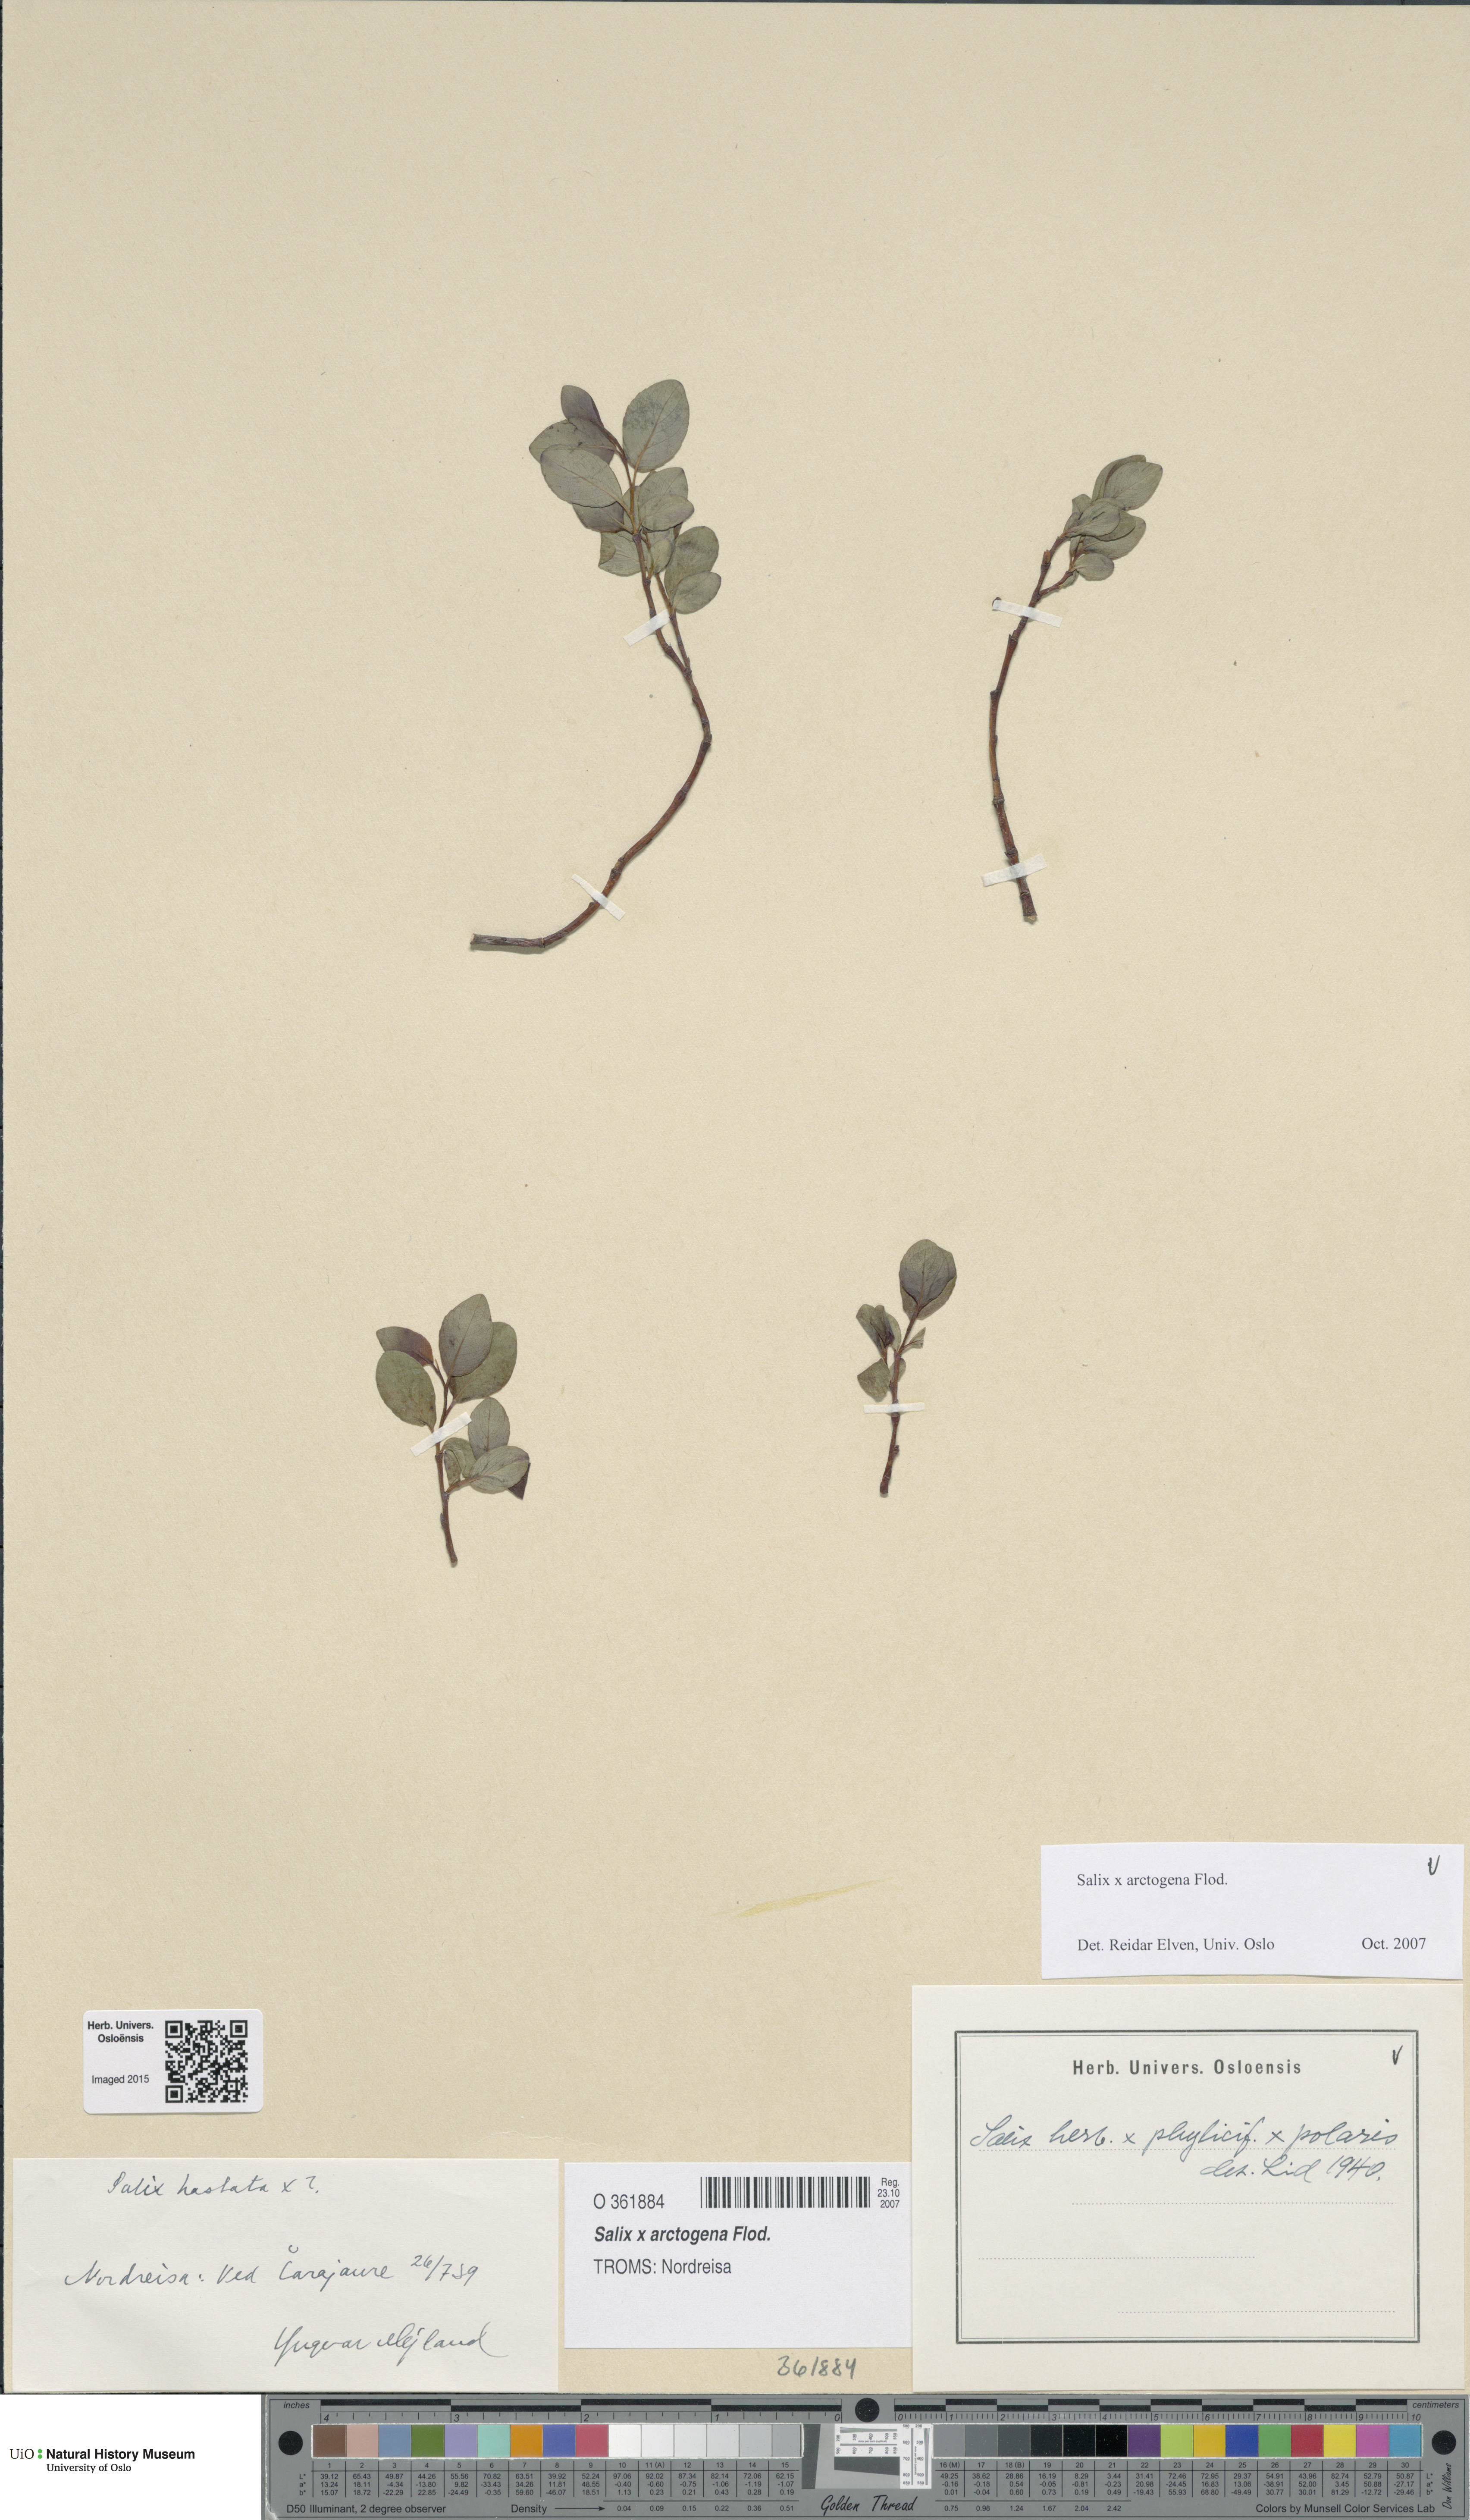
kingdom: Plantae
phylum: Tracheophyta
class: Magnoliopsida
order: Malpighiales
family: Salicaceae
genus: Salix
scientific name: Salix arctogena
